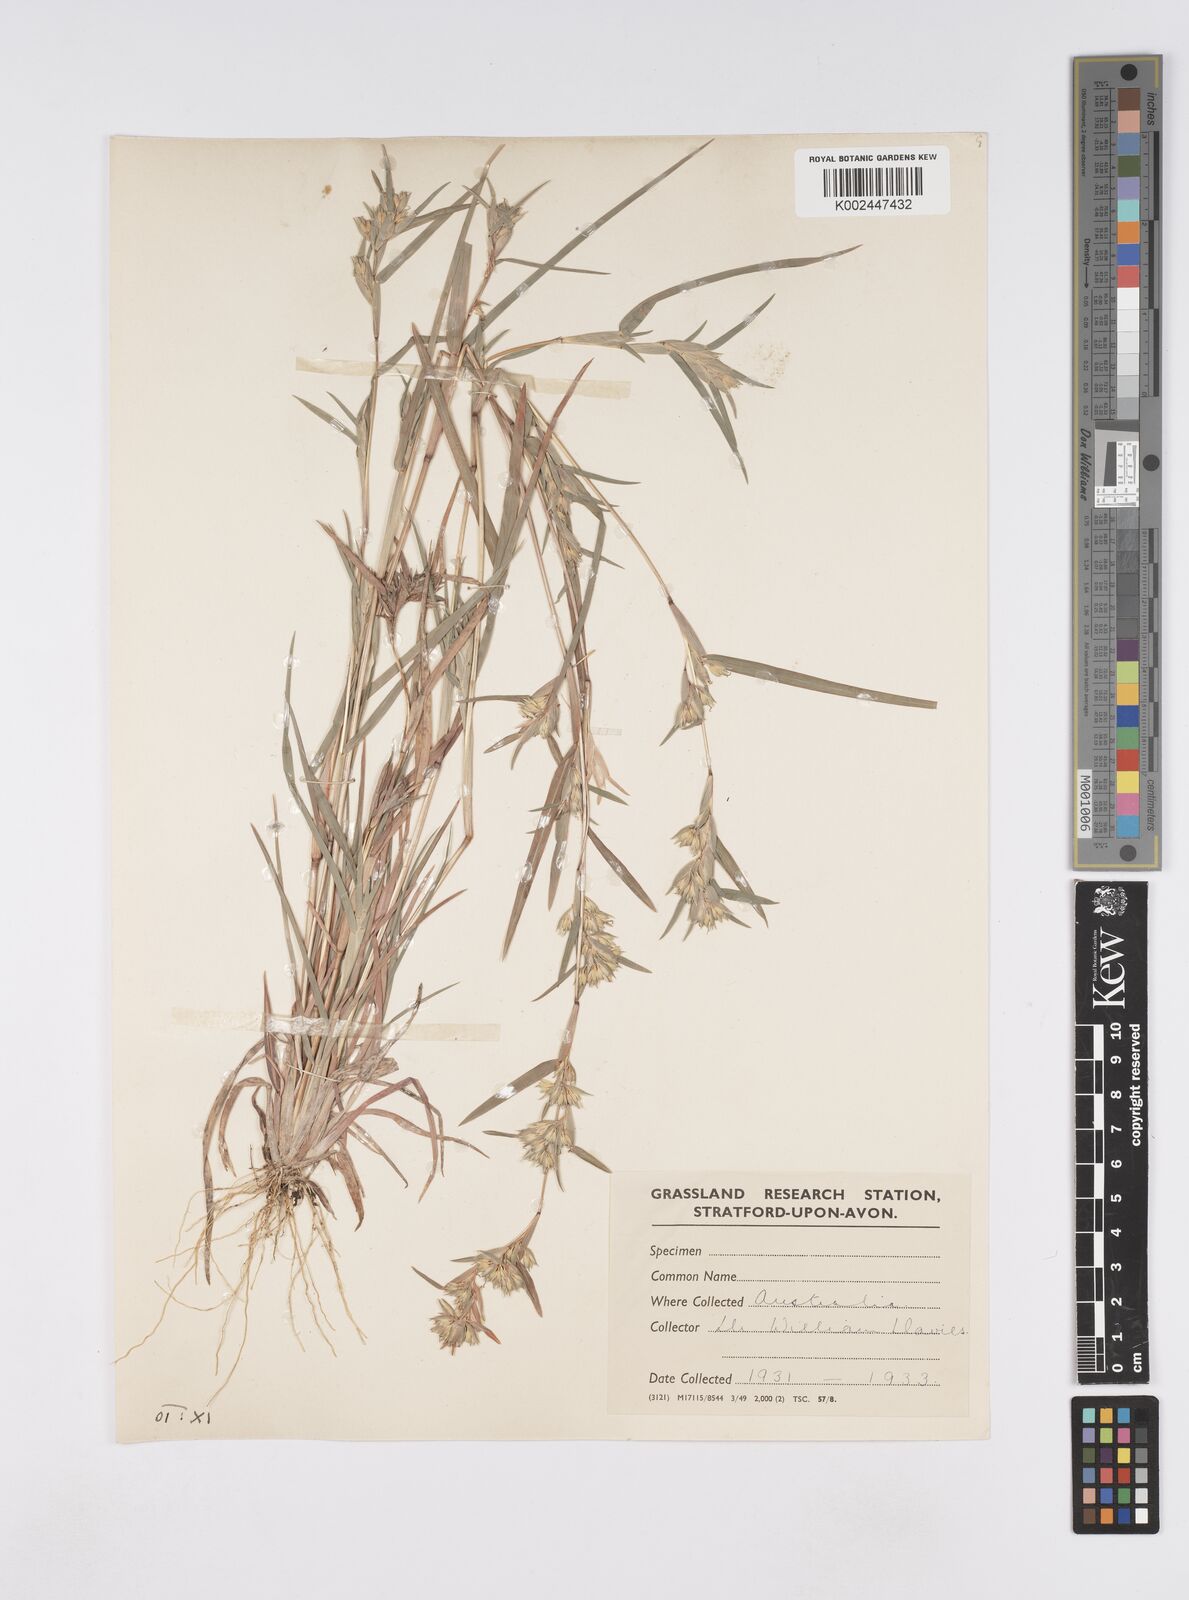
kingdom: Plantae
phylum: Tracheophyta
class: Liliopsida
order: Poales
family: Poaceae
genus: Iseilema
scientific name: Iseilema
